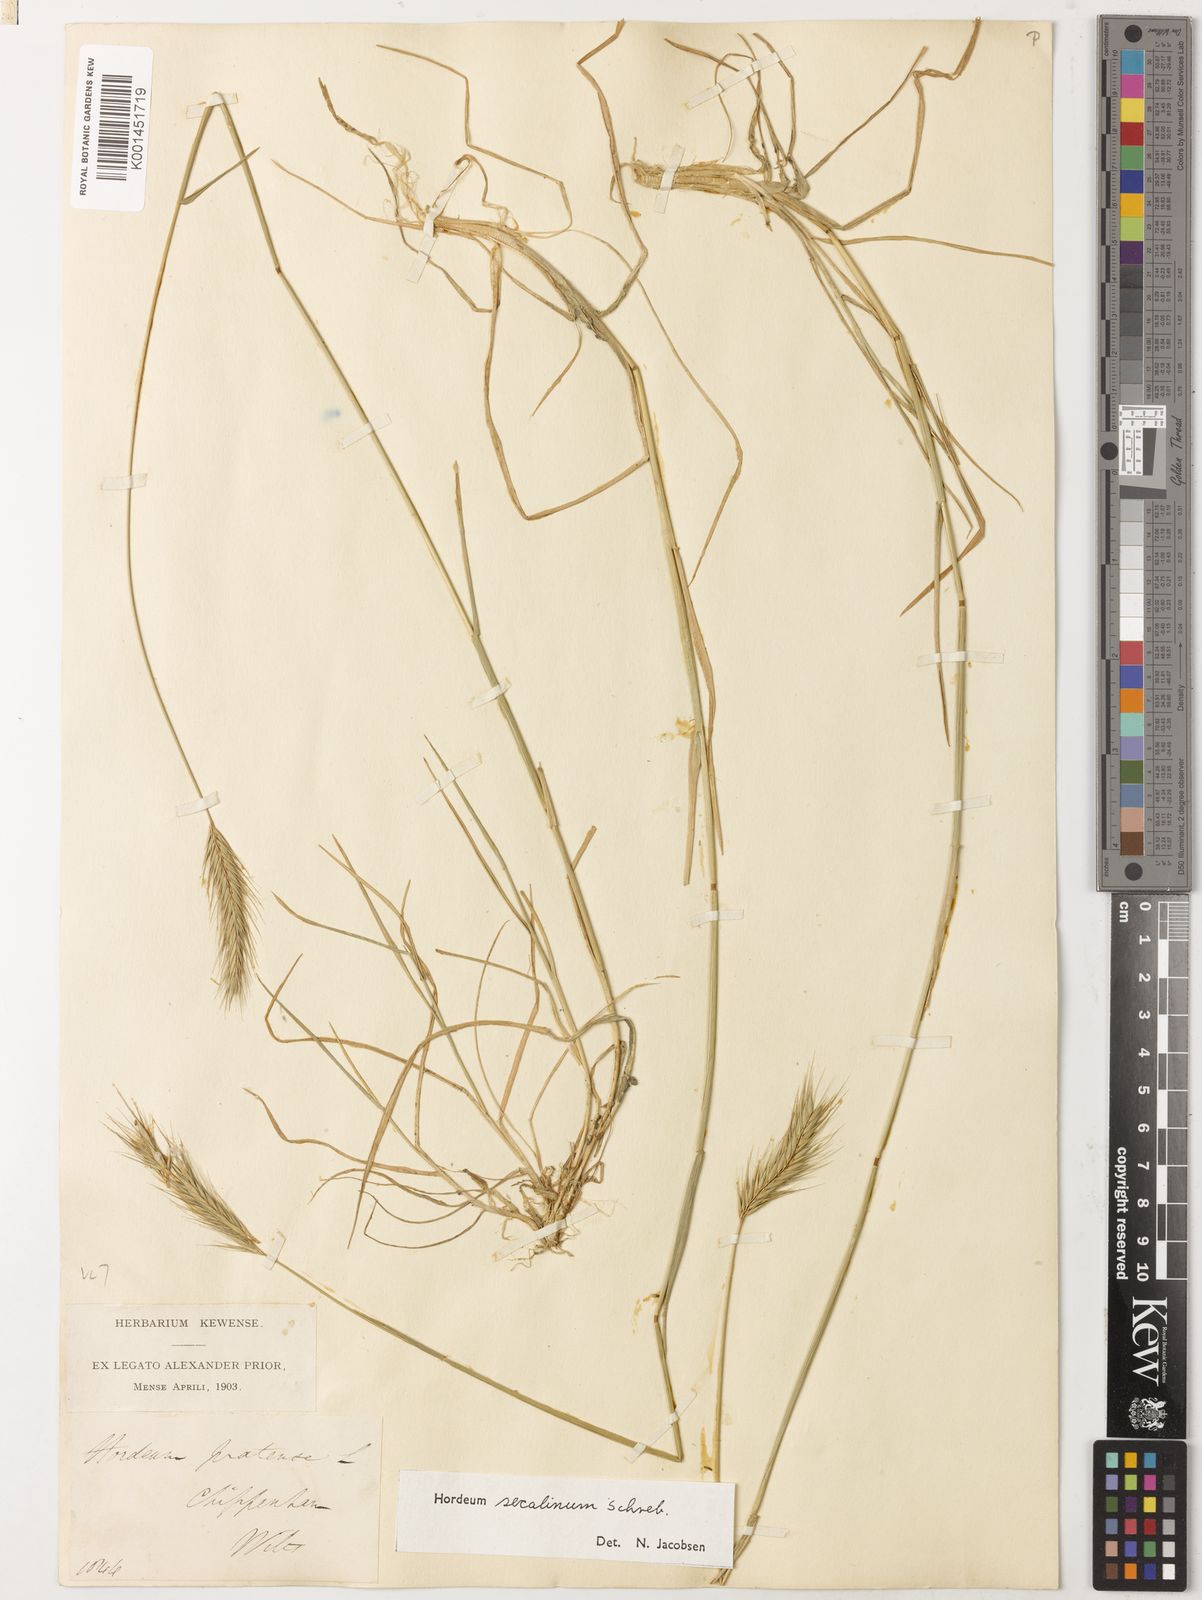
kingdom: Plantae
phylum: Tracheophyta
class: Liliopsida
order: Poales
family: Poaceae
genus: Hordeum
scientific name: Hordeum secalinum
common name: Meadow barley
